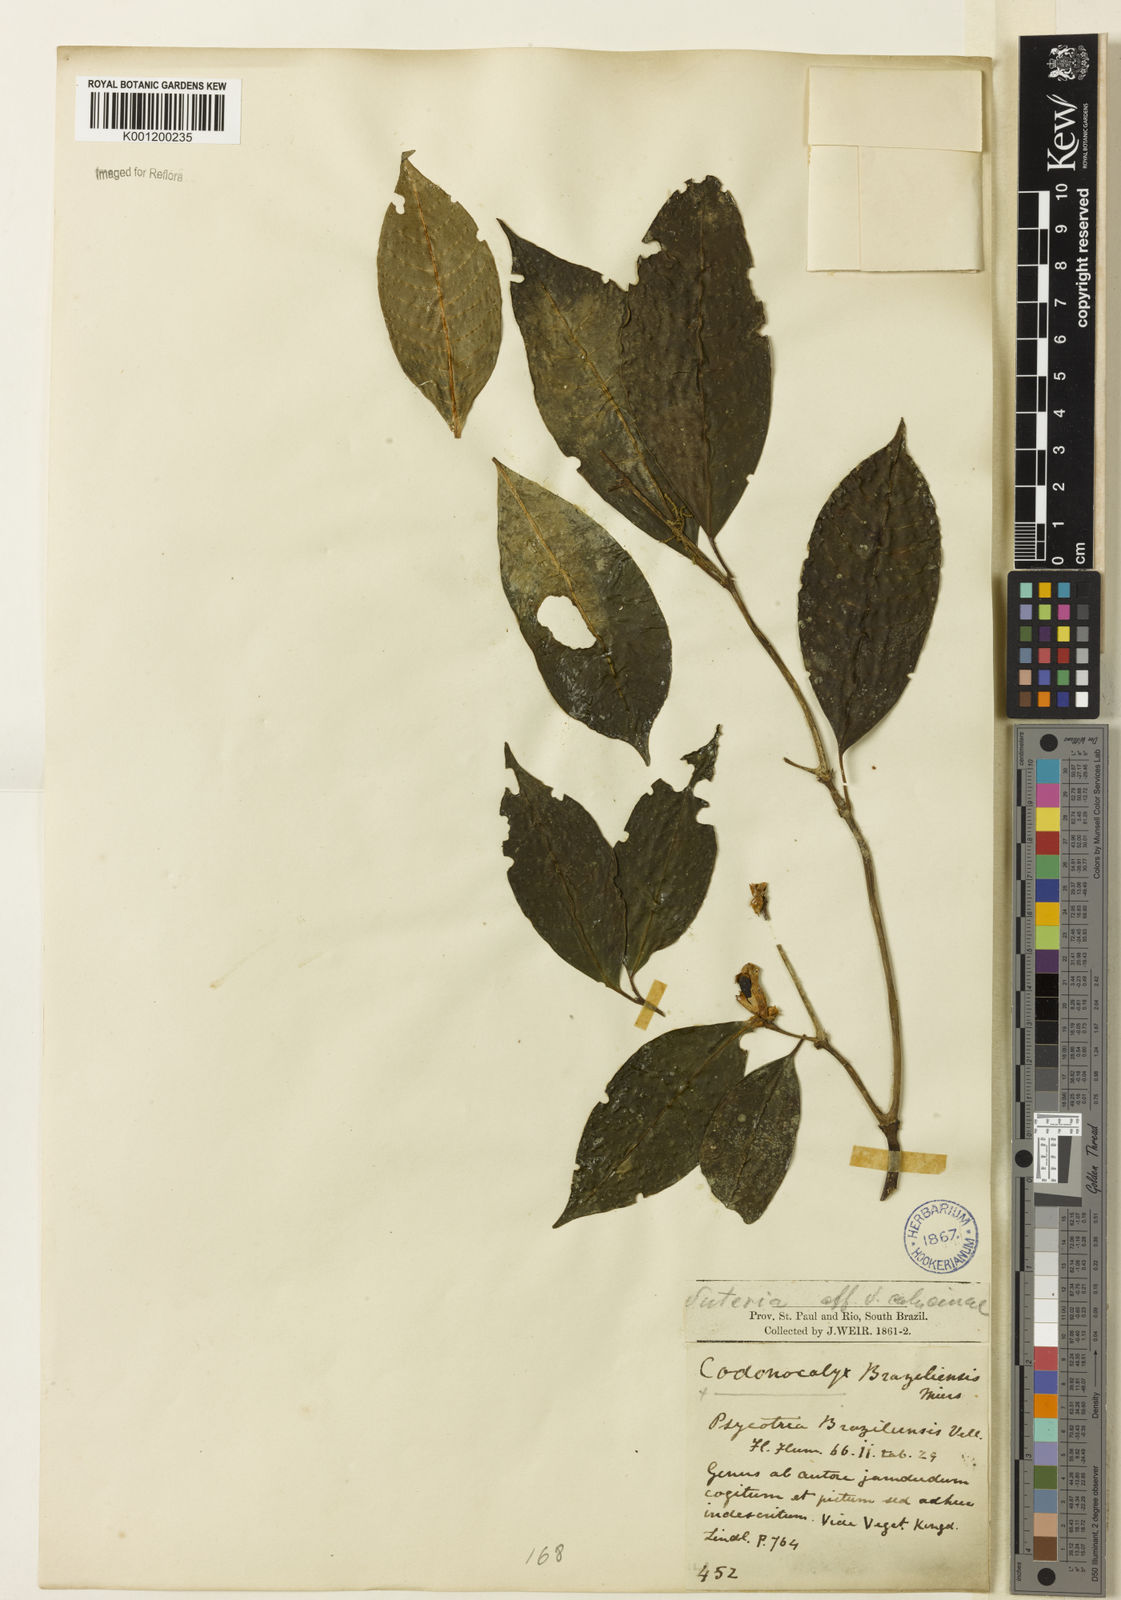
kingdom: Plantae
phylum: Tracheophyta
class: Magnoliopsida
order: Gentianales
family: Rubiaceae
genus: Psychotria
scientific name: Psychotria nuda
